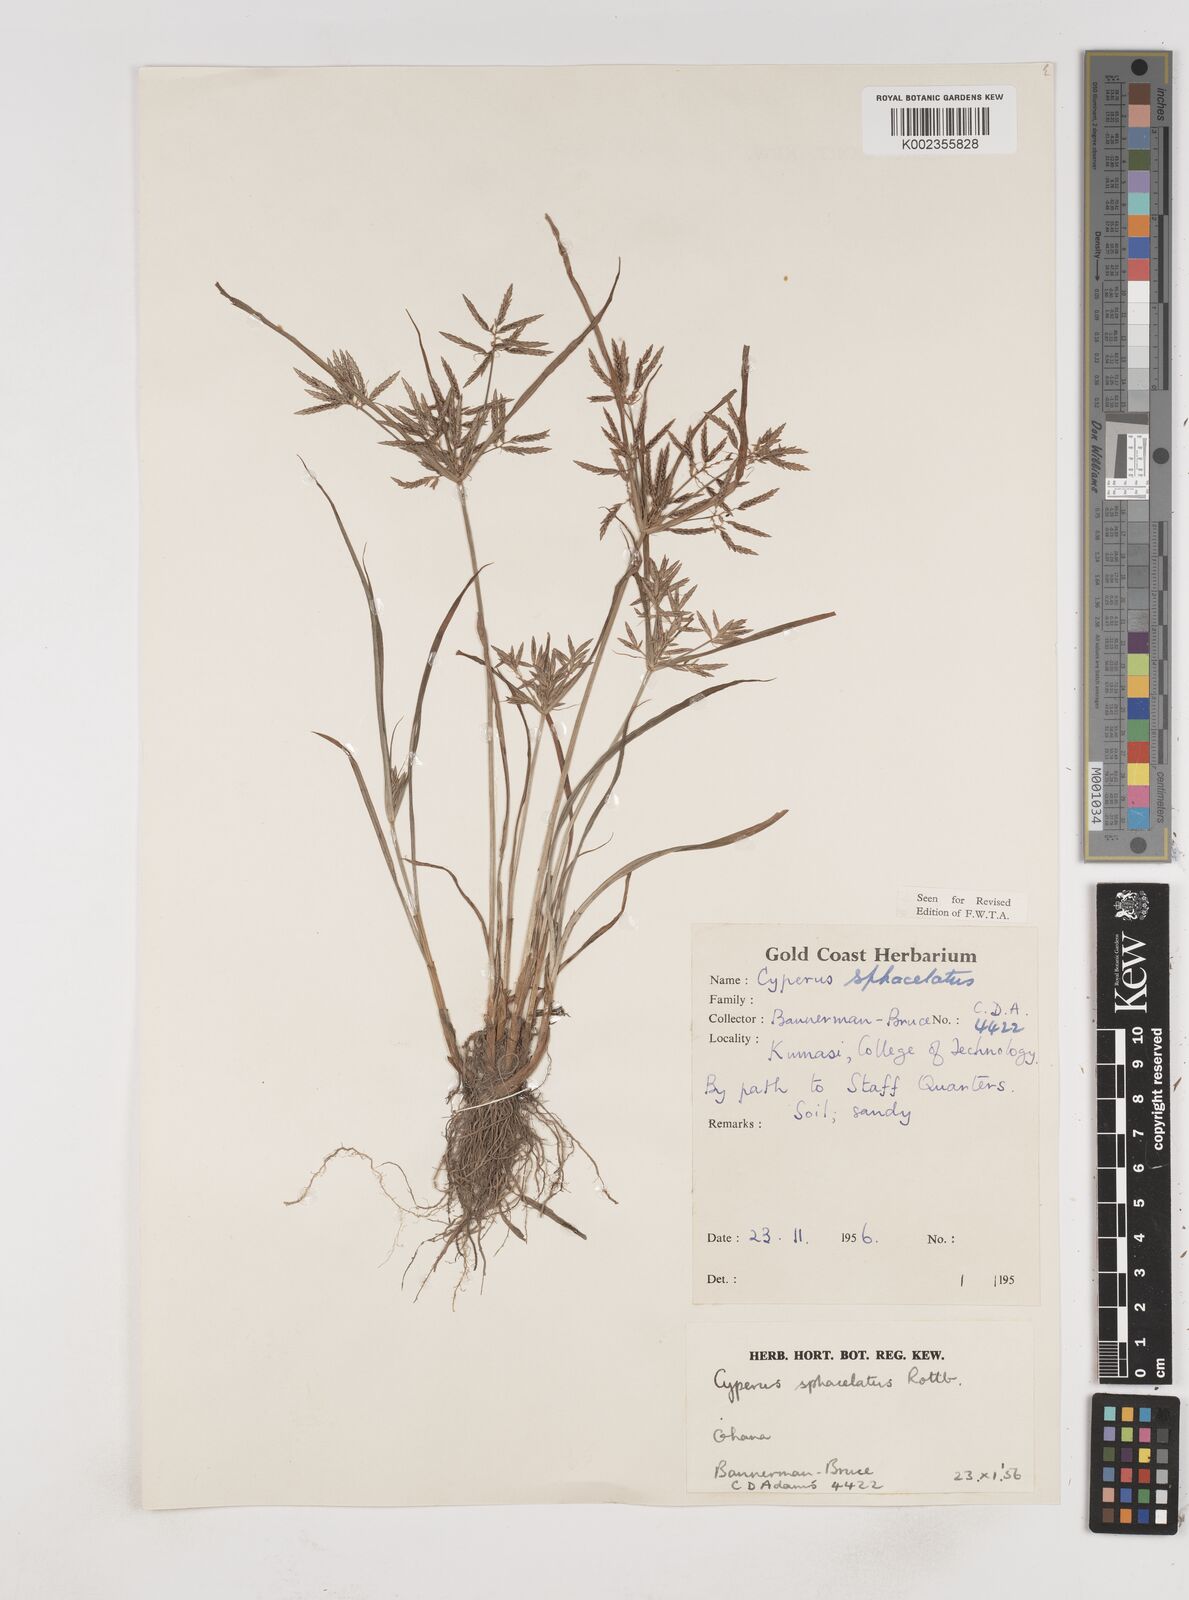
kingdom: Plantae
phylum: Tracheophyta
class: Liliopsida
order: Poales
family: Cyperaceae
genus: Cyperus
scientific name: Cyperus sphacelatus
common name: Roadside flatsedge
